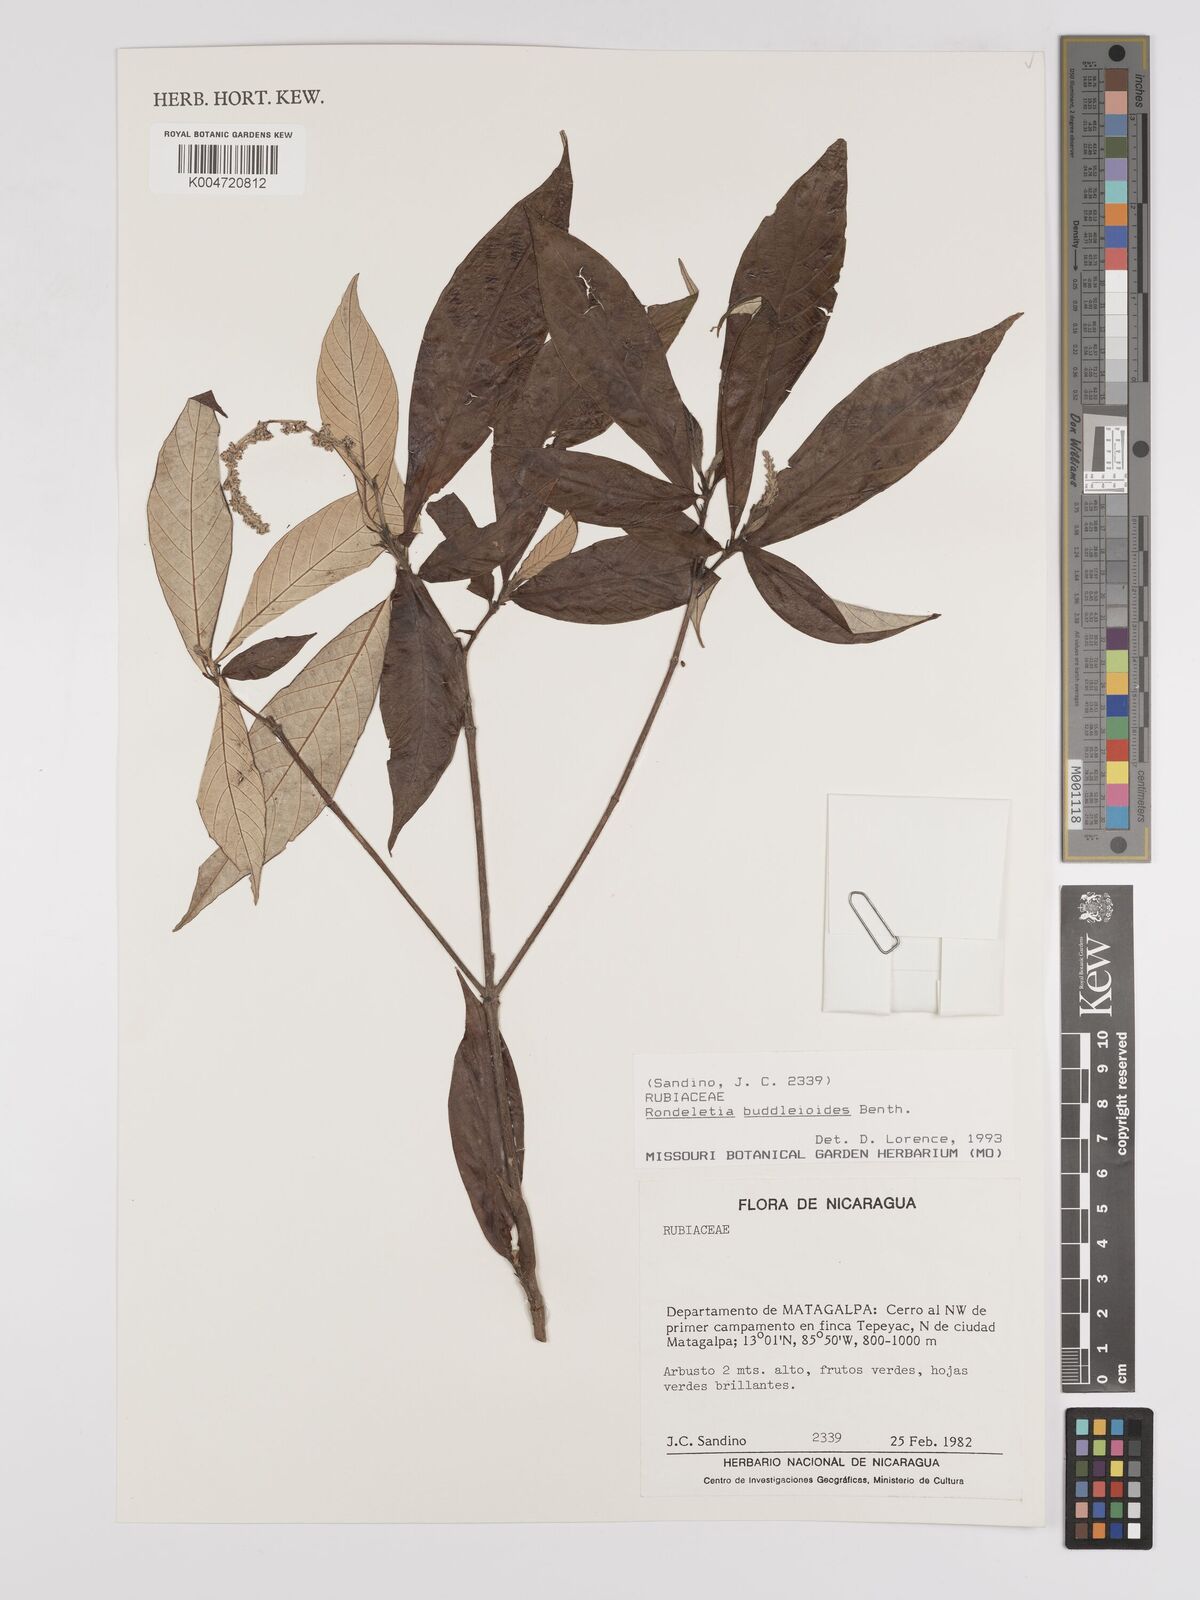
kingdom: Plantae
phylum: Tracheophyta
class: Magnoliopsida
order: Gentianales
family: Rubiaceae
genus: Arachnothryx
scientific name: Arachnothryx buddleioides
